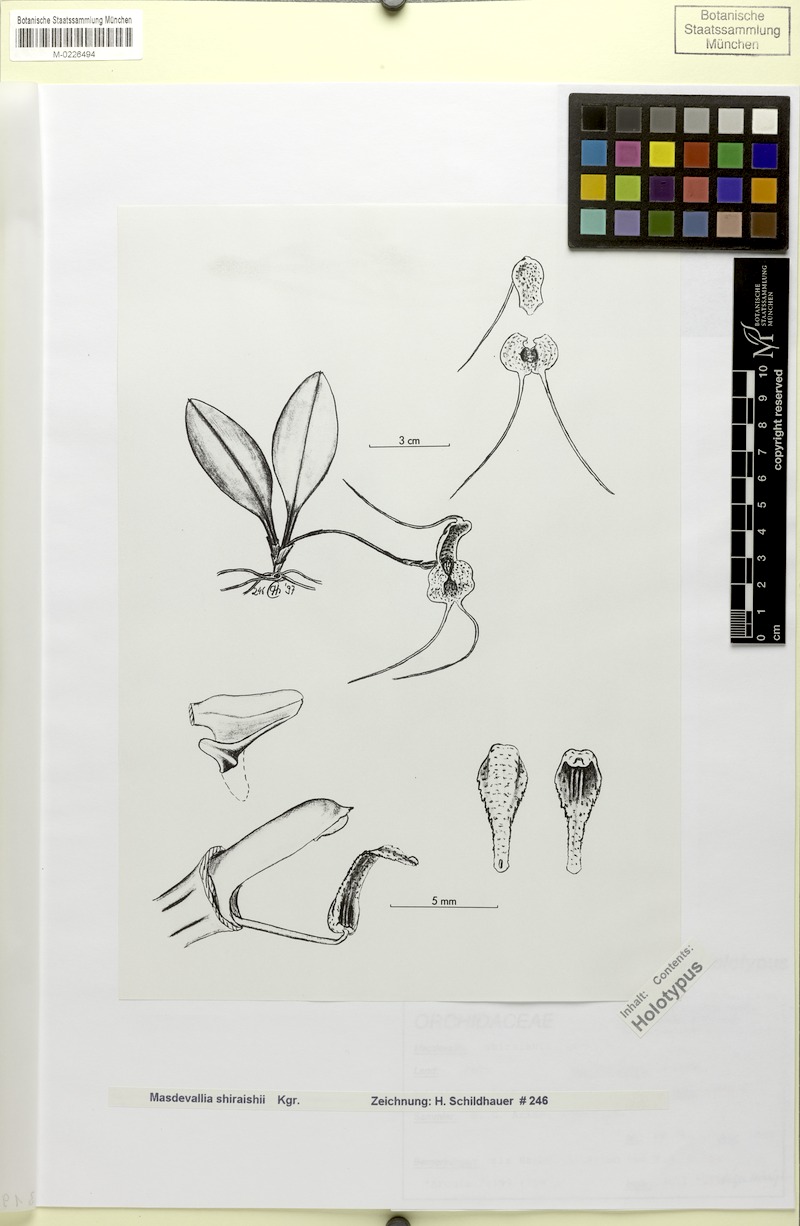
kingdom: Plantae
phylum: Tracheophyta
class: Liliopsida
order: Asparagales
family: Orchidaceae
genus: Masdevallia
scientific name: Masdevallia shiraishii
